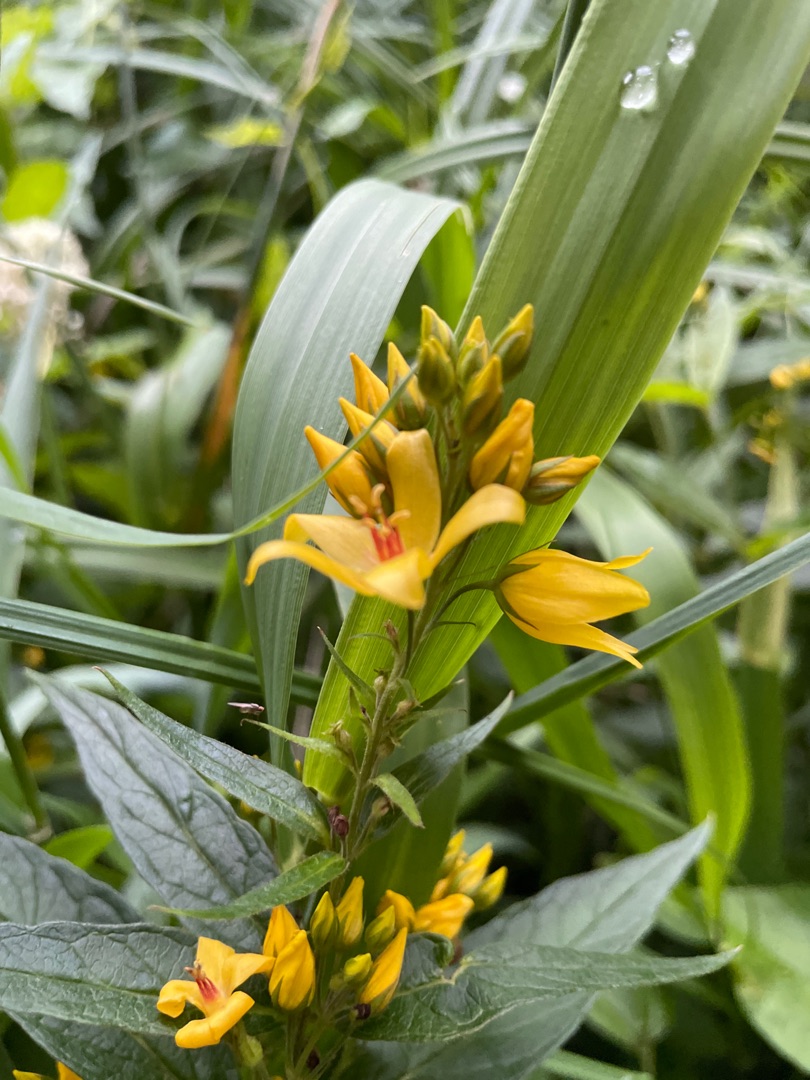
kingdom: Plantae
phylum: Tracheophyta
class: Magnoliopsida
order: Ericales
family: Primulaceae
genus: Lysimachia
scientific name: Lysimachia vulgaris
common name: Almindelig fredløs
